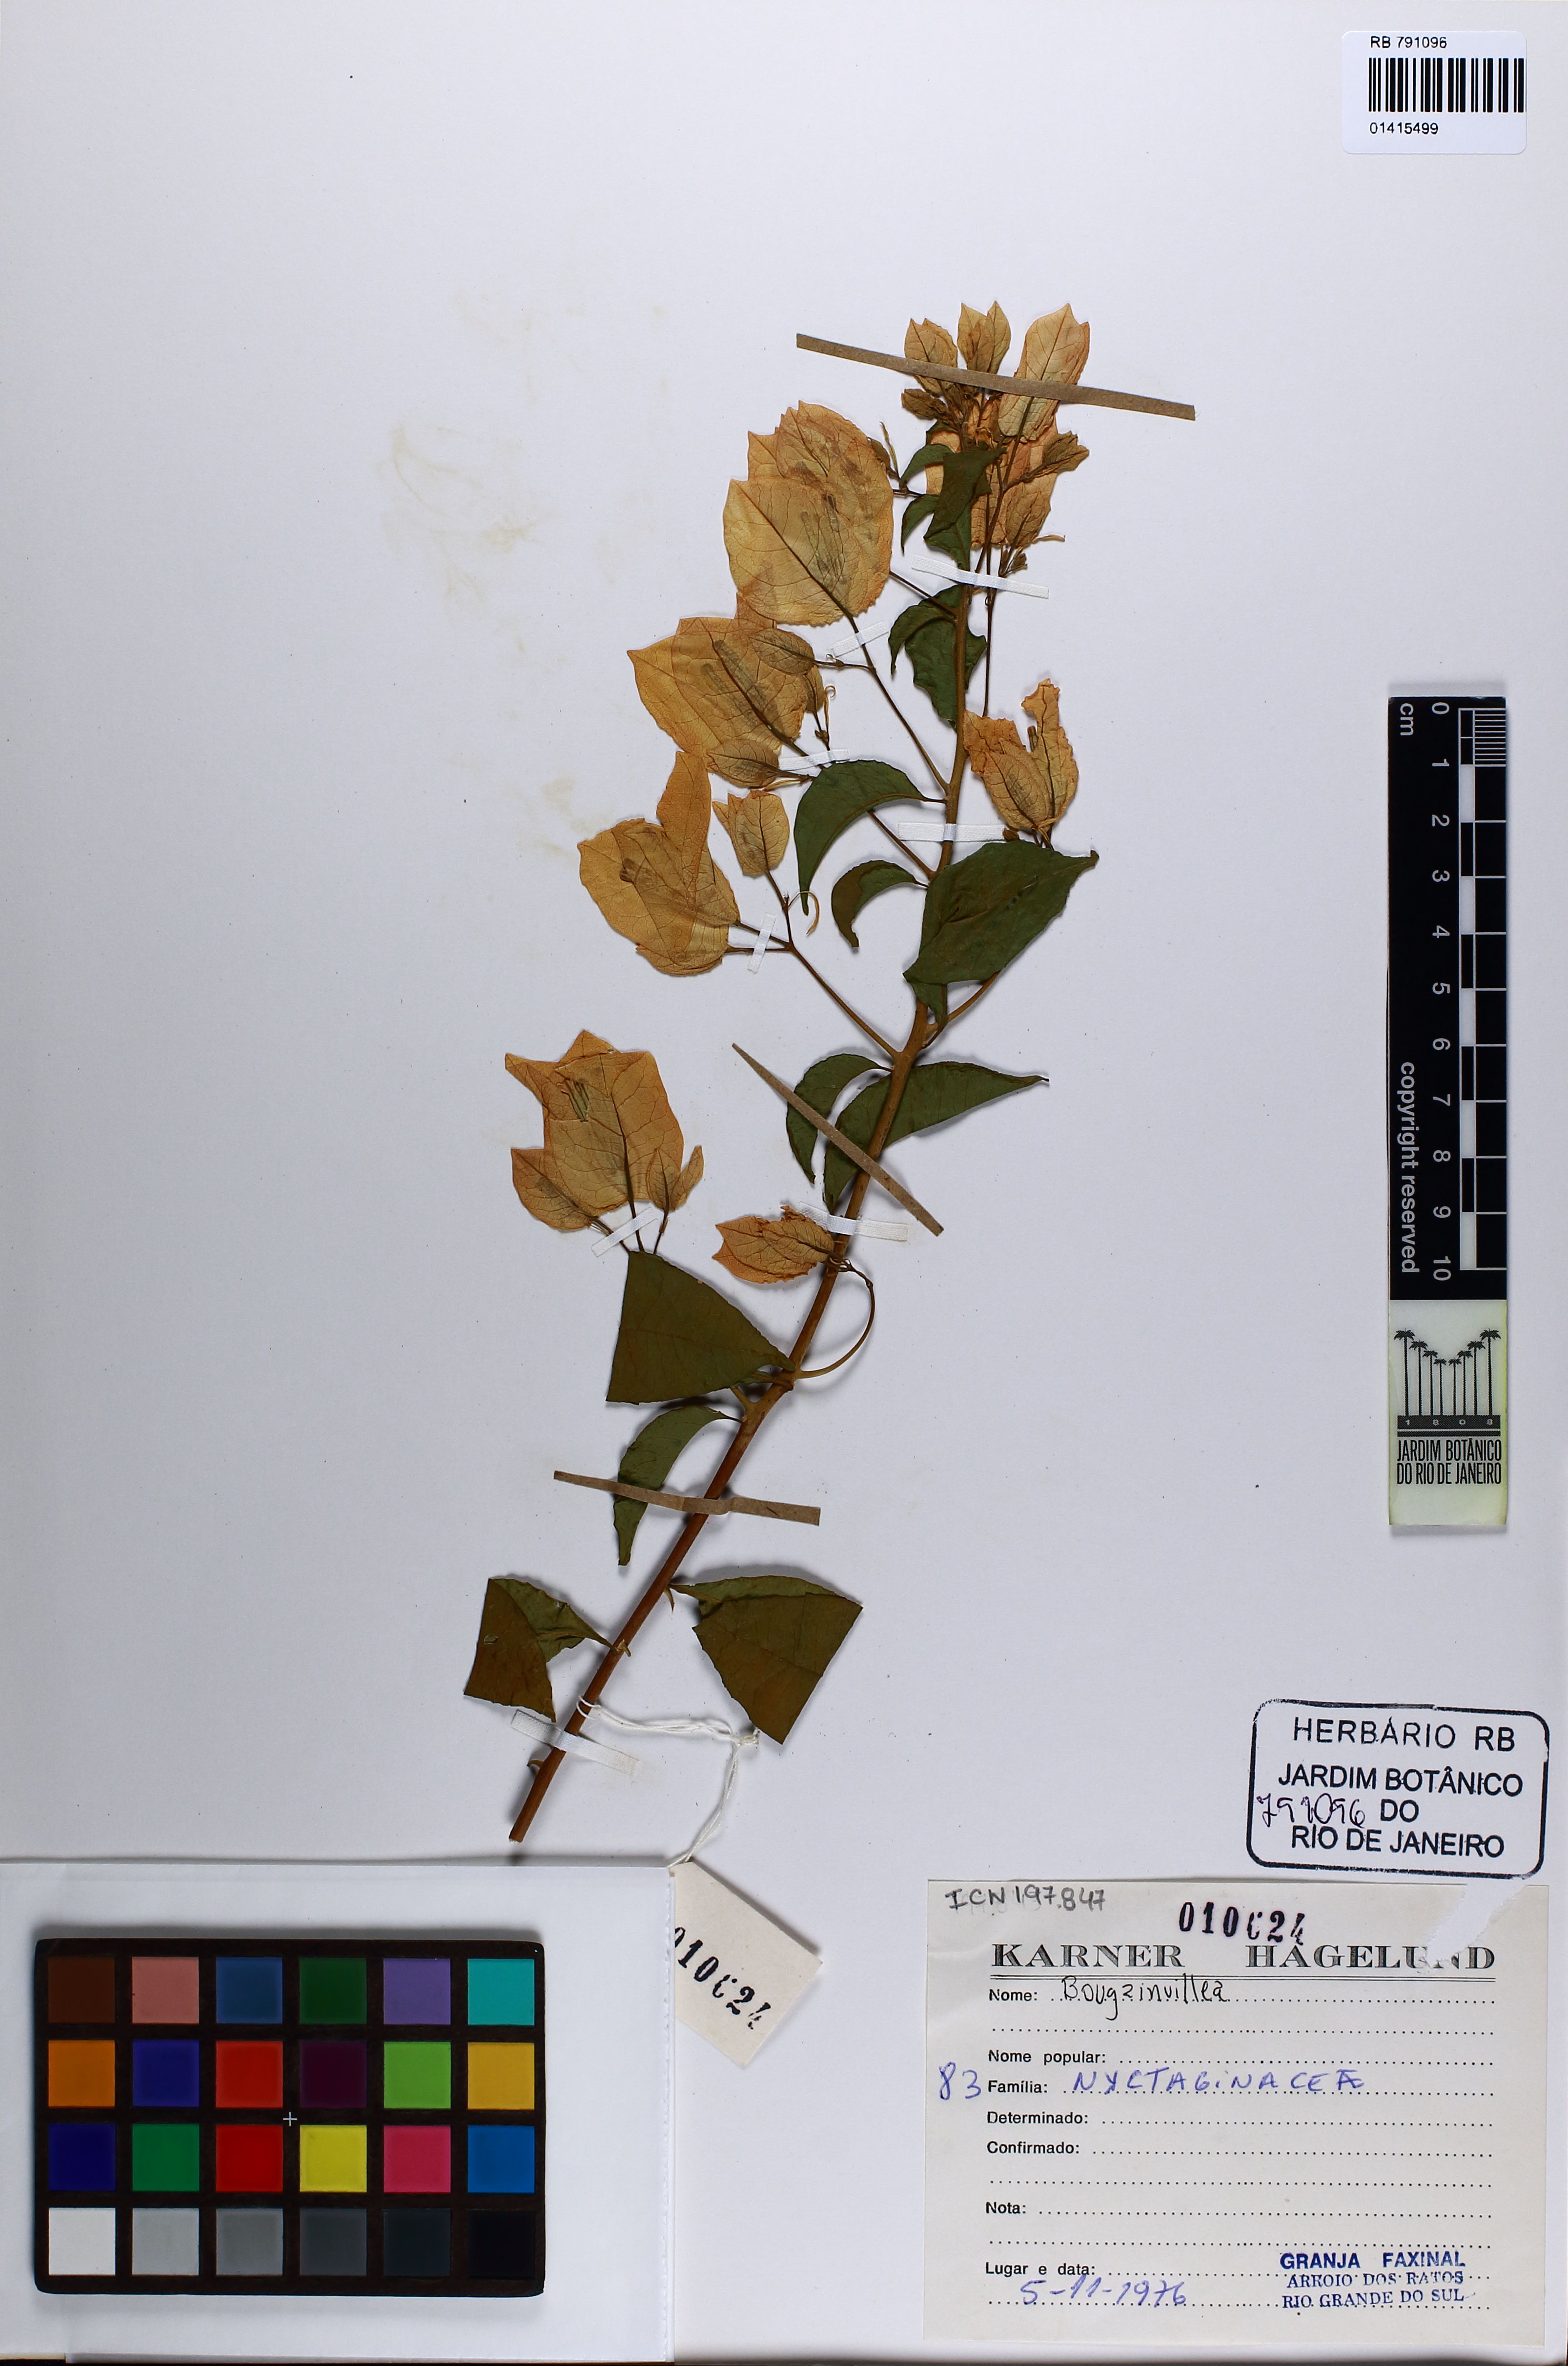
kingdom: Plantae
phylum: Tracheophyta
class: Magnoliopsida
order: Caryophyllales
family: Nyctaginaceae
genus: Bougainvillea
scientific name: Bougainvillea
